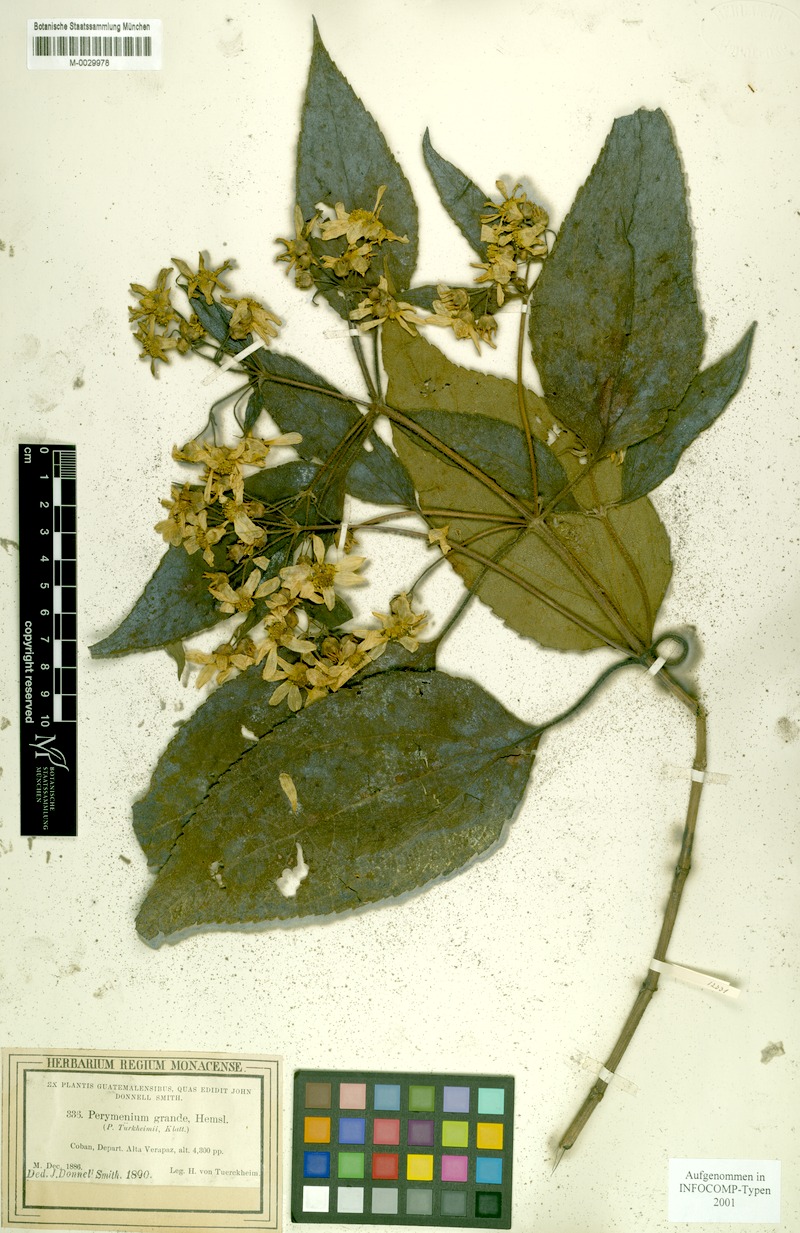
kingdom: Plantae
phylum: Tracheophyta
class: Magnoliopsida
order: Asterales
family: Asteraceae
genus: Perymenium
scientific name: Perymenium grande
